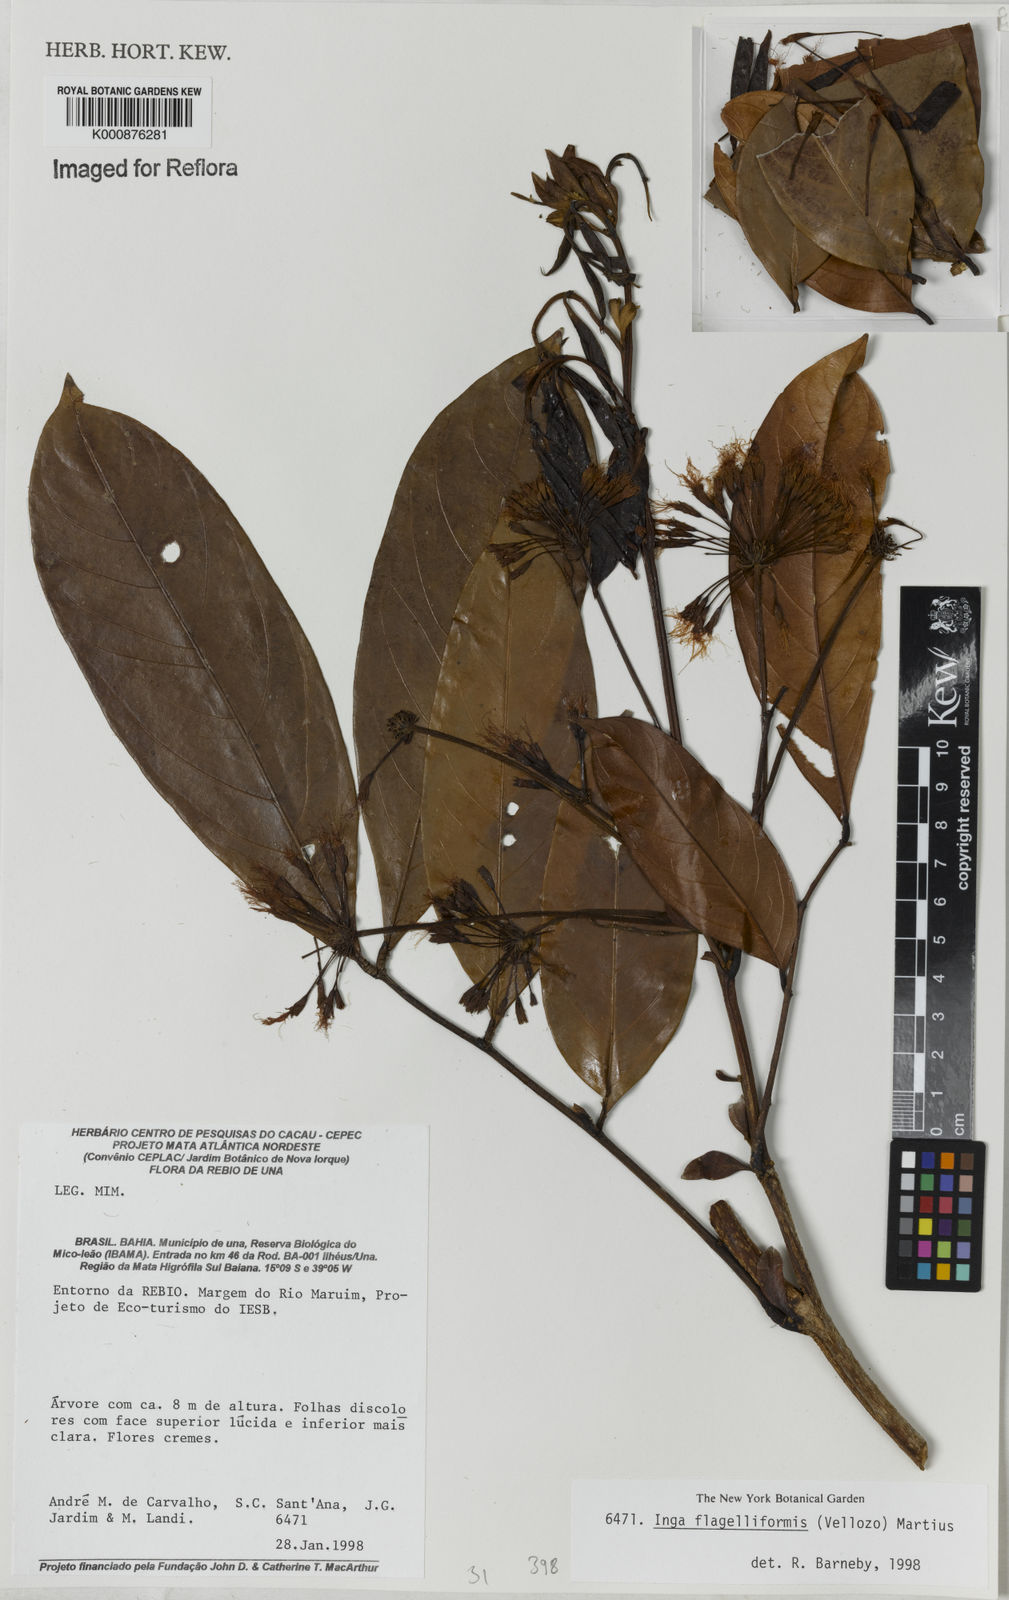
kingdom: Plantae
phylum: Tracheophyta
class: Magnoliopsida
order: Fabales
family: Fabaceae
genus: Inga
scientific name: Inga flagelliformis
